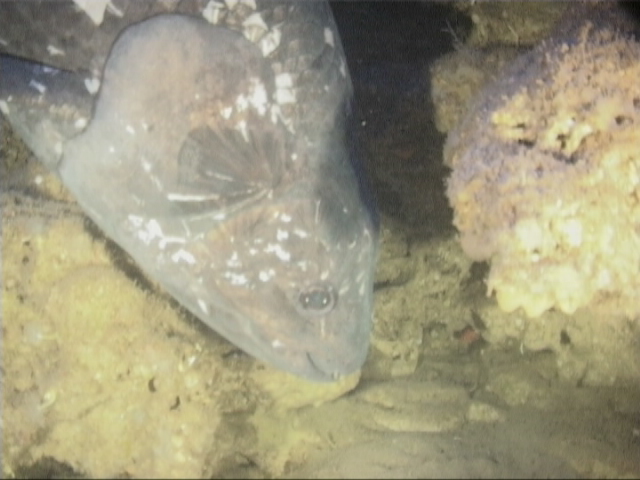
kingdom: Animalia
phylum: Chordata
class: Coelacanthi
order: Coelacanthiformes
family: Latimeriidae
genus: Latimeria
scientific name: Latimeria chalumnae
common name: Coelacanth
